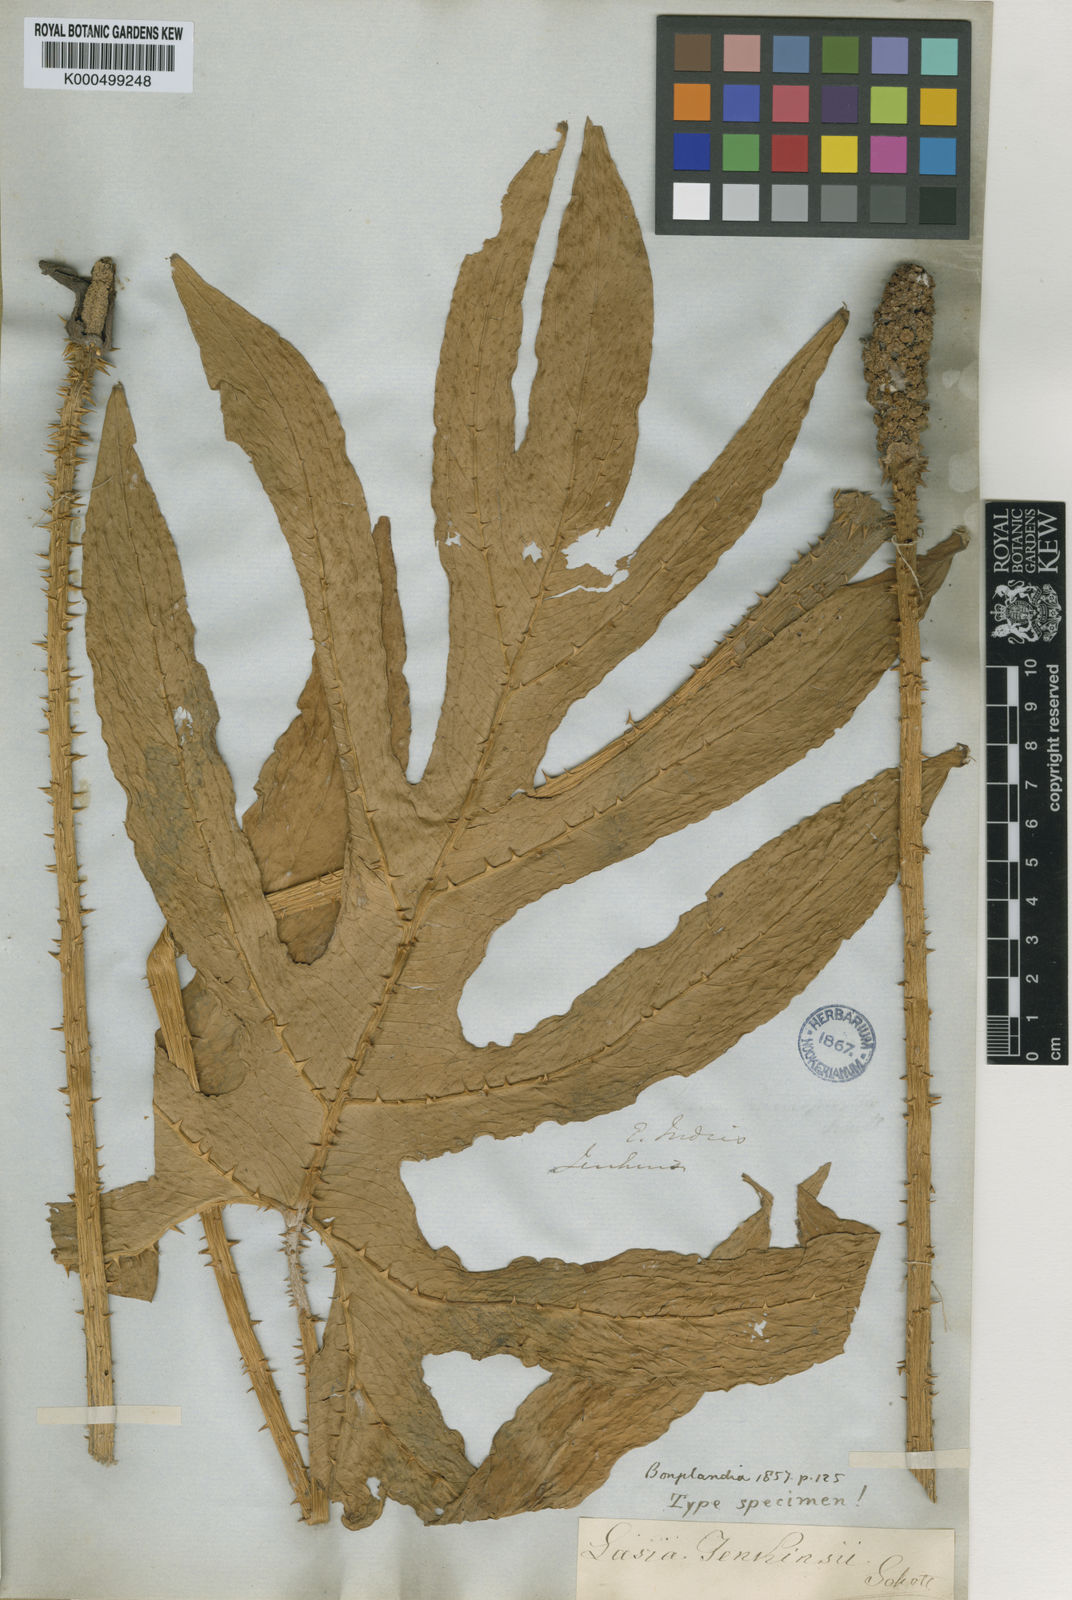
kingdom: Plantae
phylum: Tracheophyta
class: Liliopsida
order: Alismatales
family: Araceae
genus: Lasia
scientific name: Lasia spinosa
